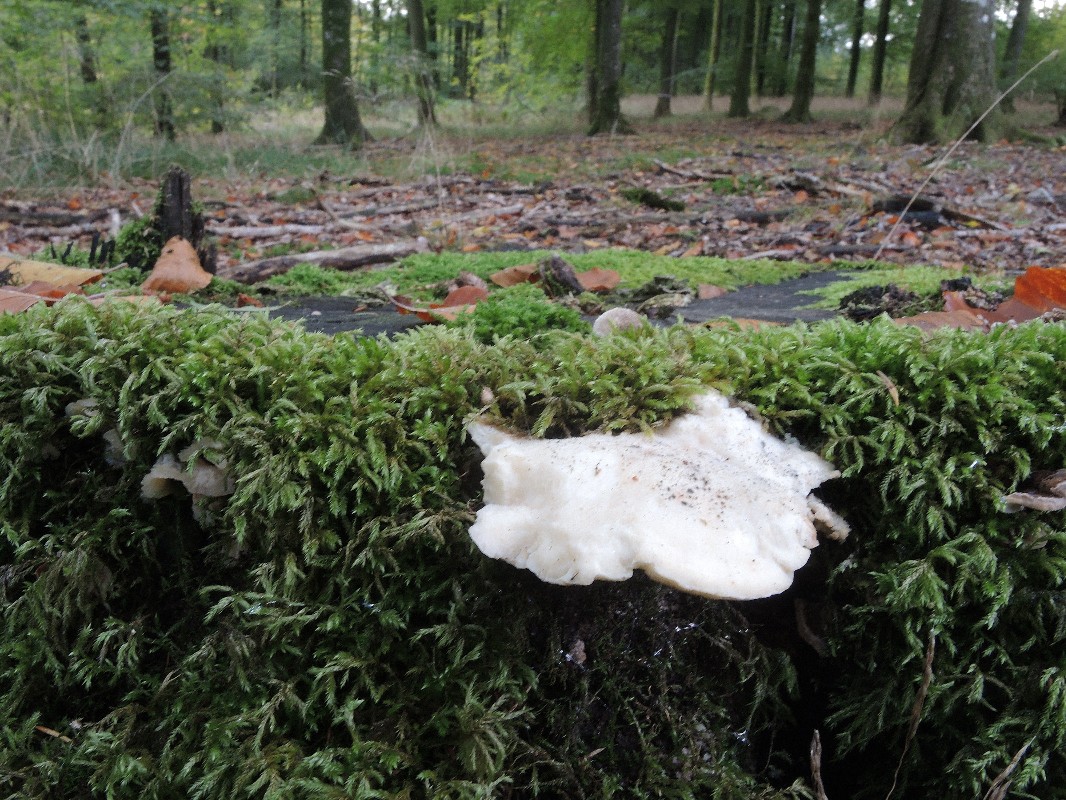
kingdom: Fungi
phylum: Basidiomycota
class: Agaricomycetes
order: Polyporales
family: Incrustoporiaceae
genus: Tyromyces
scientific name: Tyromyces lacteus
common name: mælkehvid kødporesvamp
